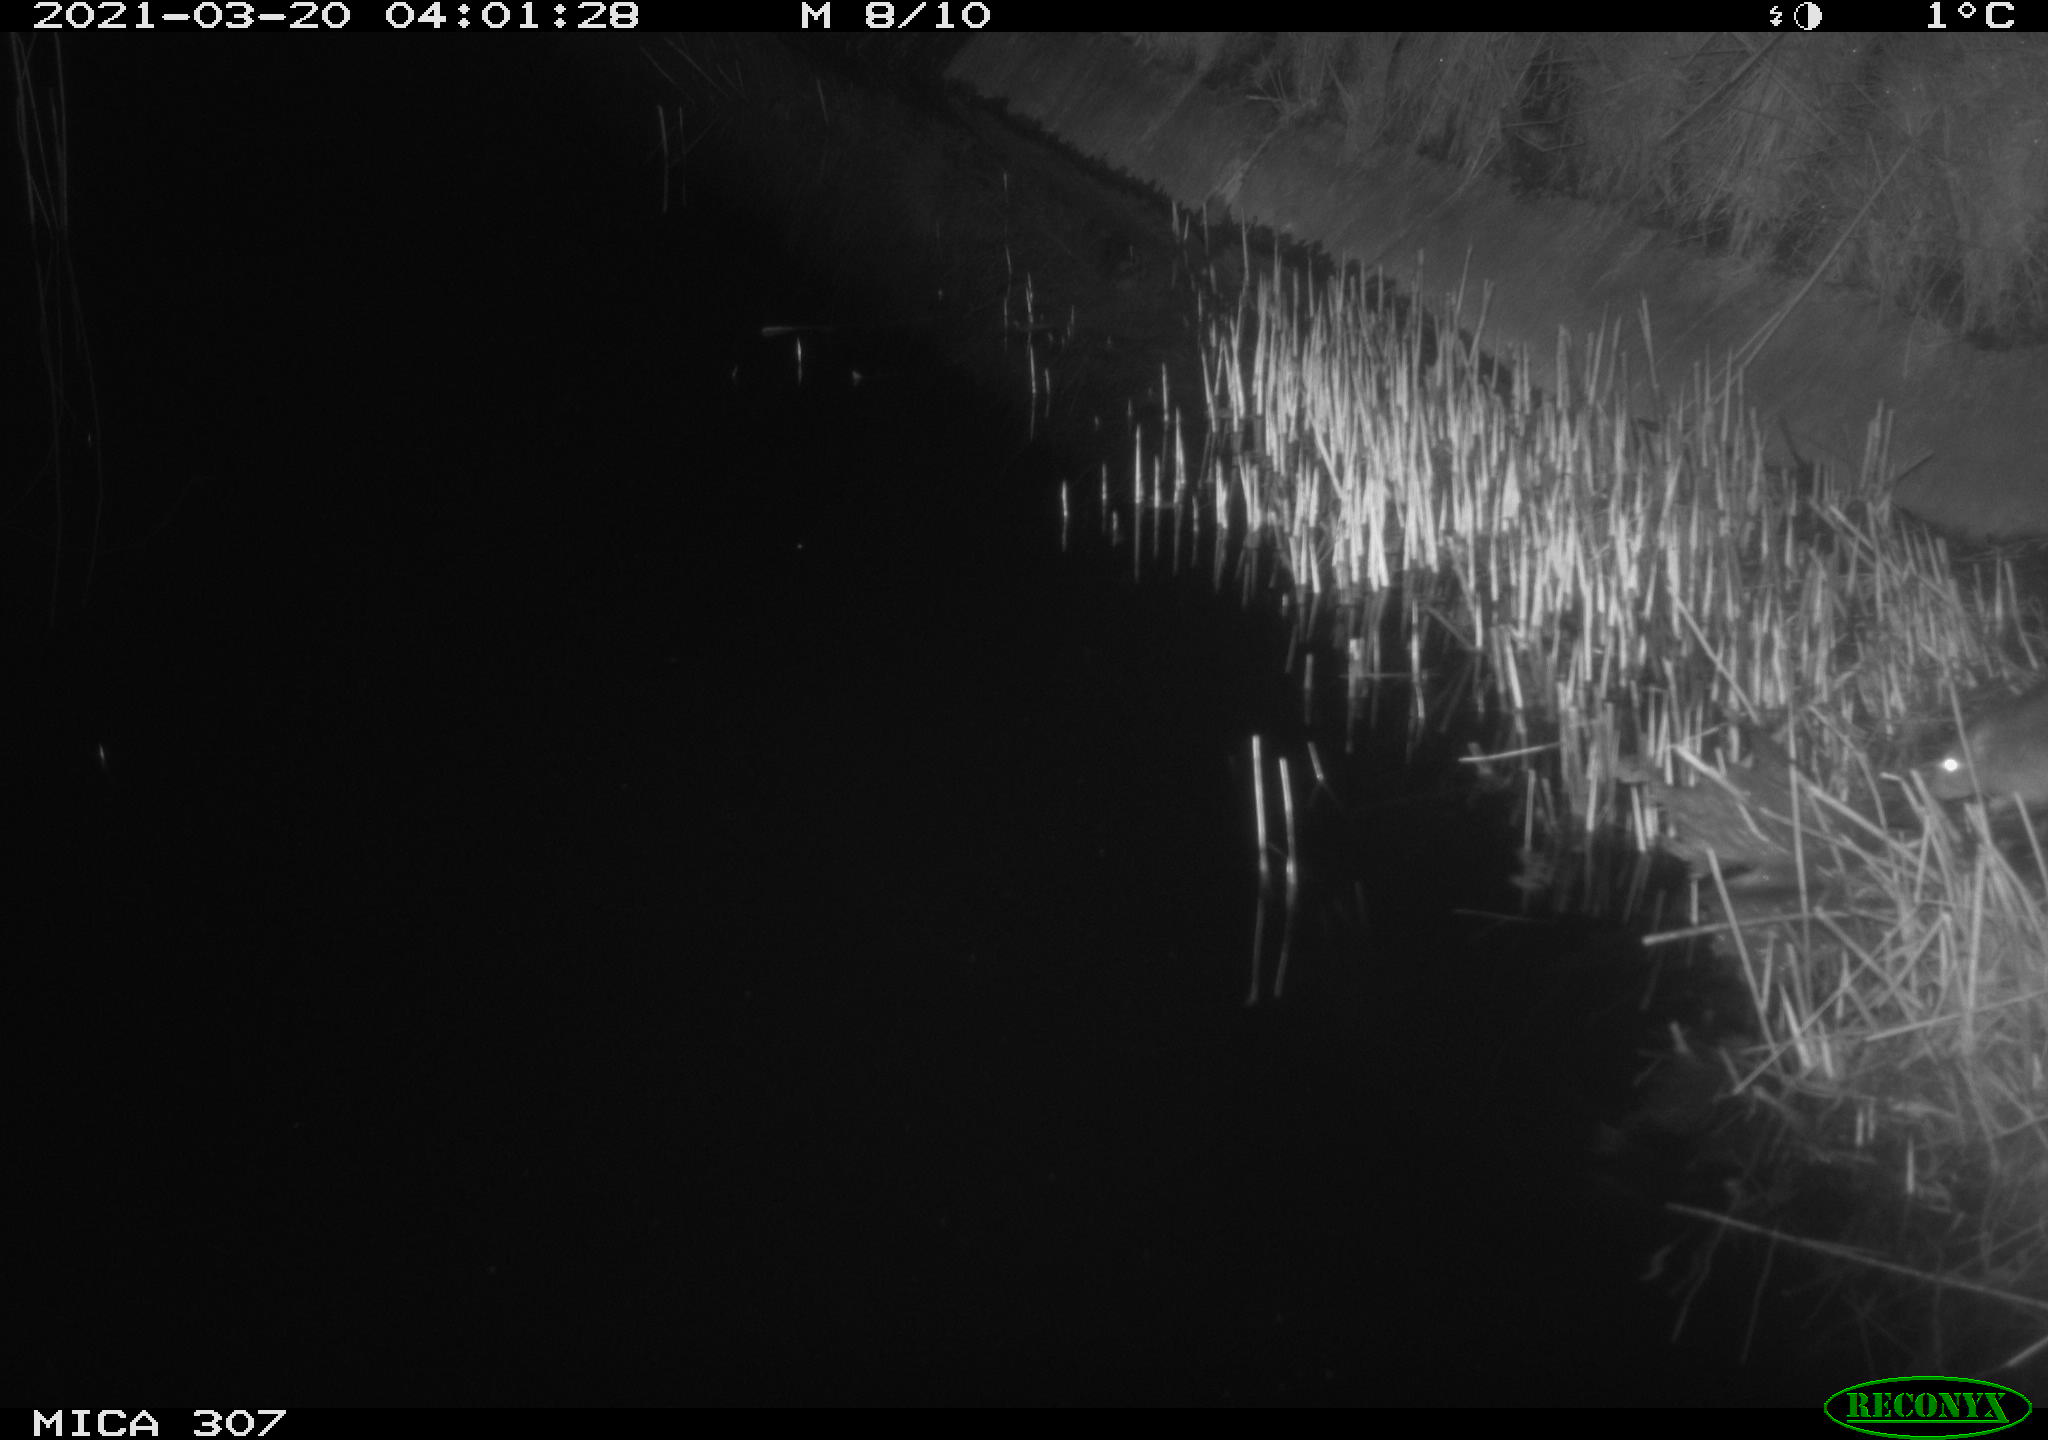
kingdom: Animalia
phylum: Chordata
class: Mammalia
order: Rodentia
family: Muridae
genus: Rattus
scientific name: Rattus norvegicus
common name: Brown rat
